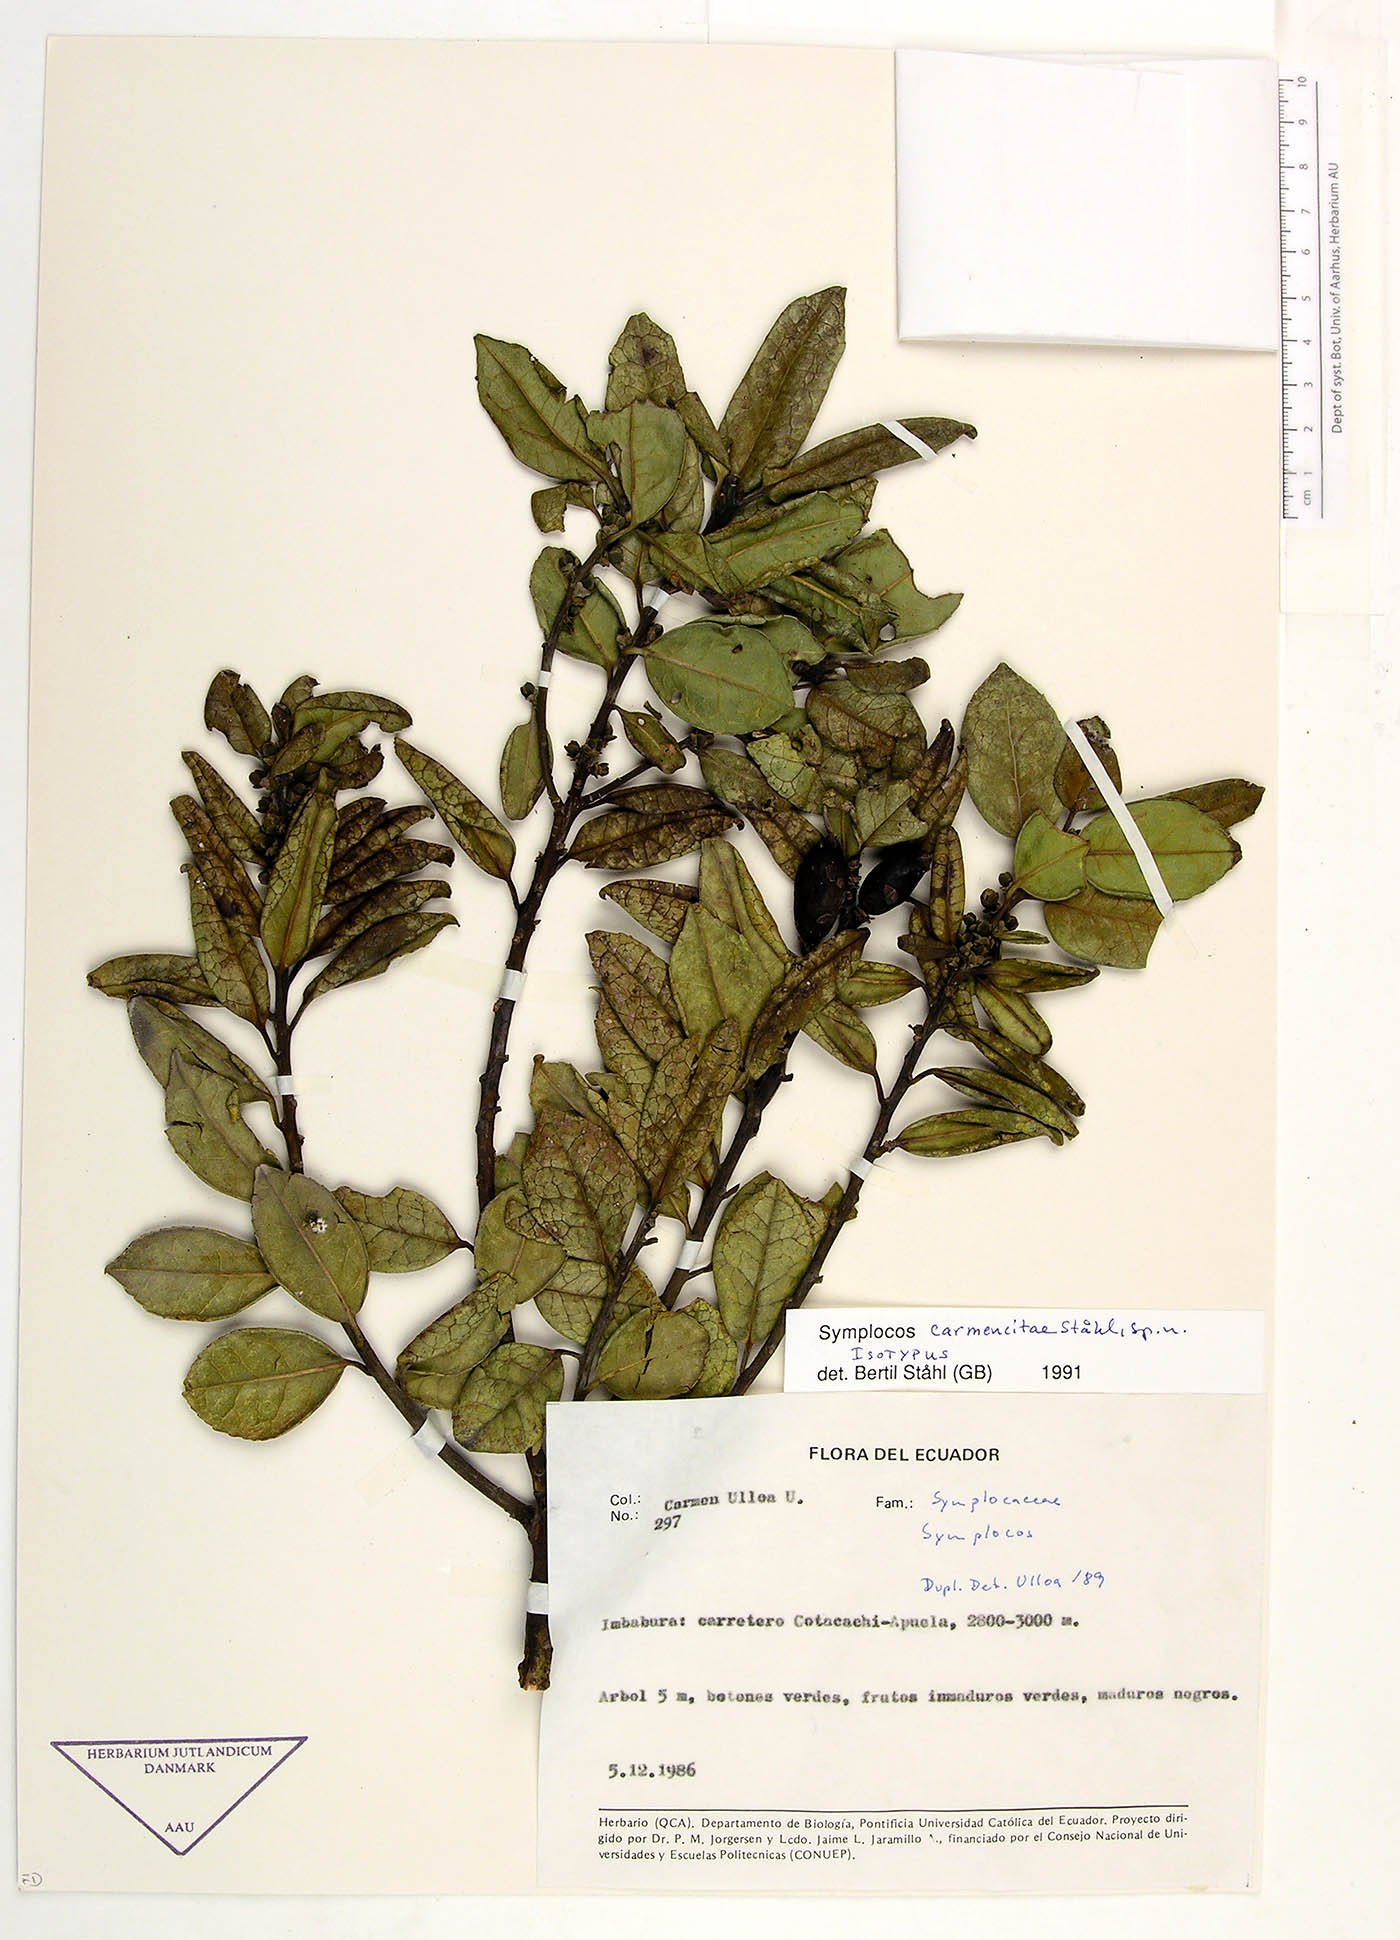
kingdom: Plantae
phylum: Tracheophyta
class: Magnoliopsida
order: Ericales
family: Symplocaceae
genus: Symplocos
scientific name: Symplocos carmencitae
